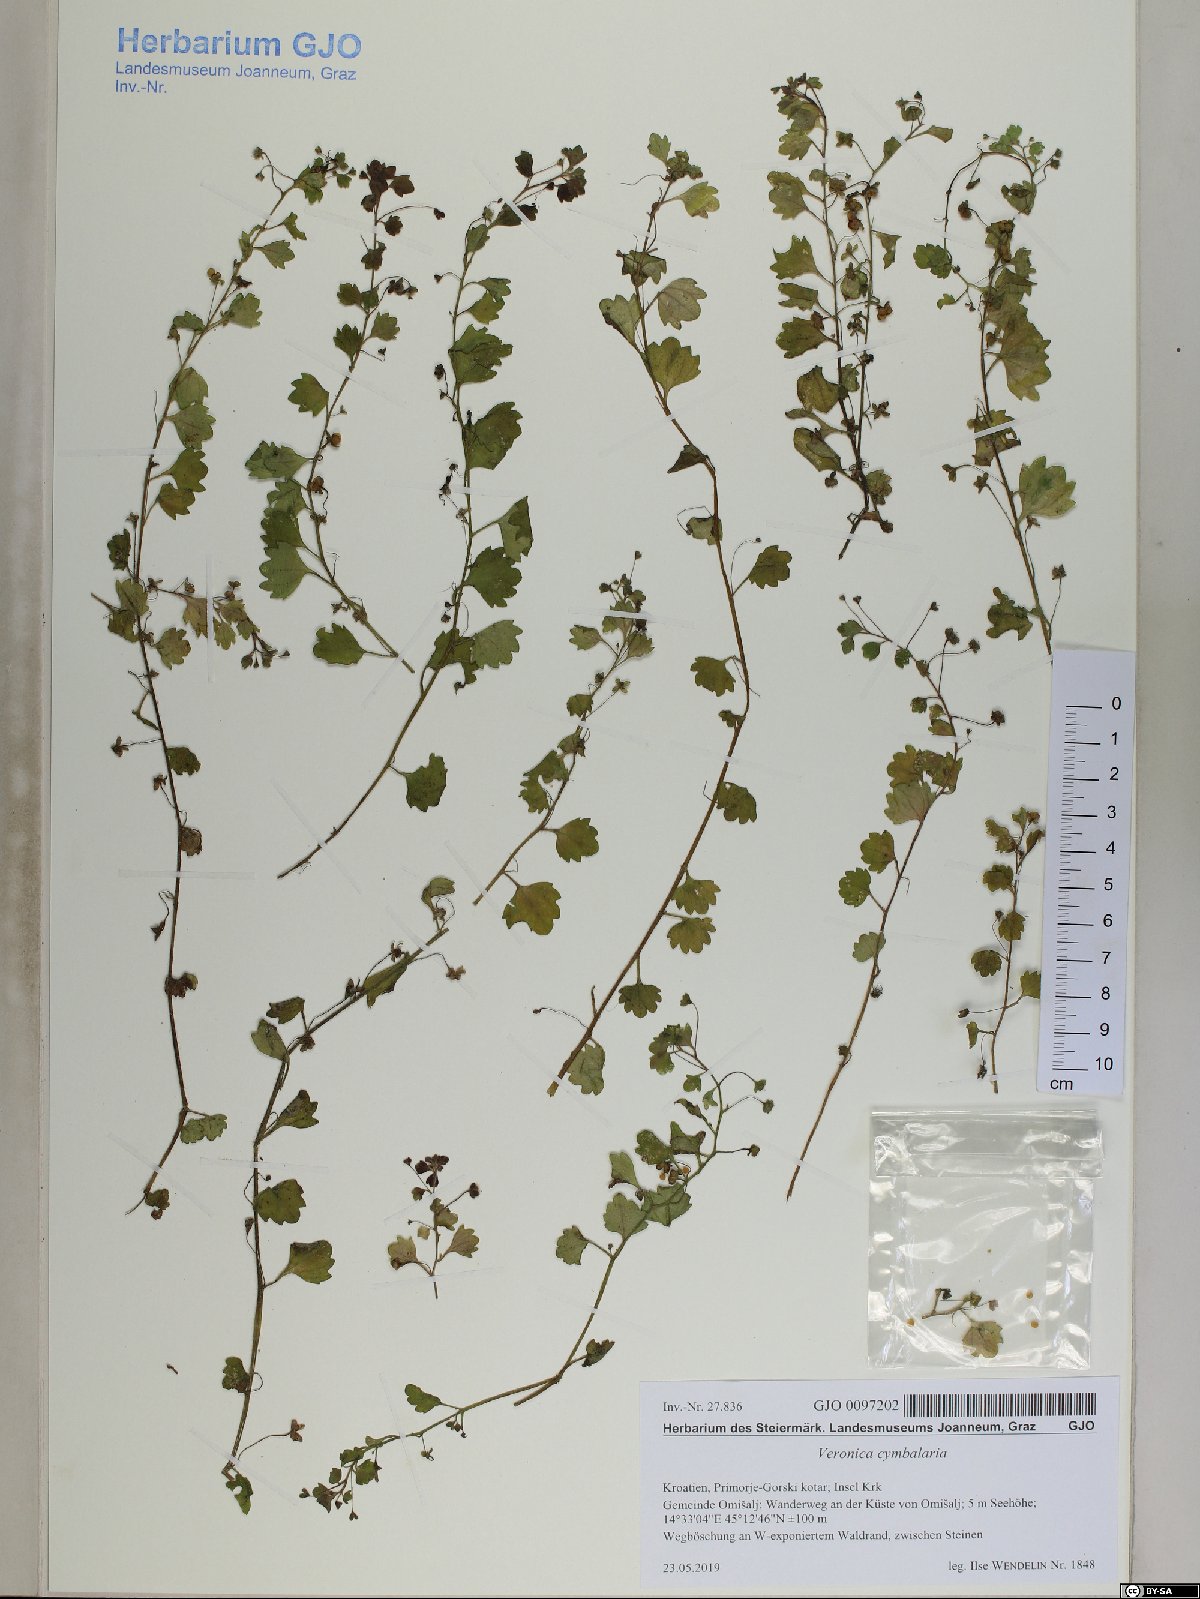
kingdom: Plantae
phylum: Tracheophyta
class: Magnoliopsida
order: Lamiales
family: Plantaginaceae
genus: Veronica
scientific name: Veronica cymbalaria
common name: Pale speedwell
